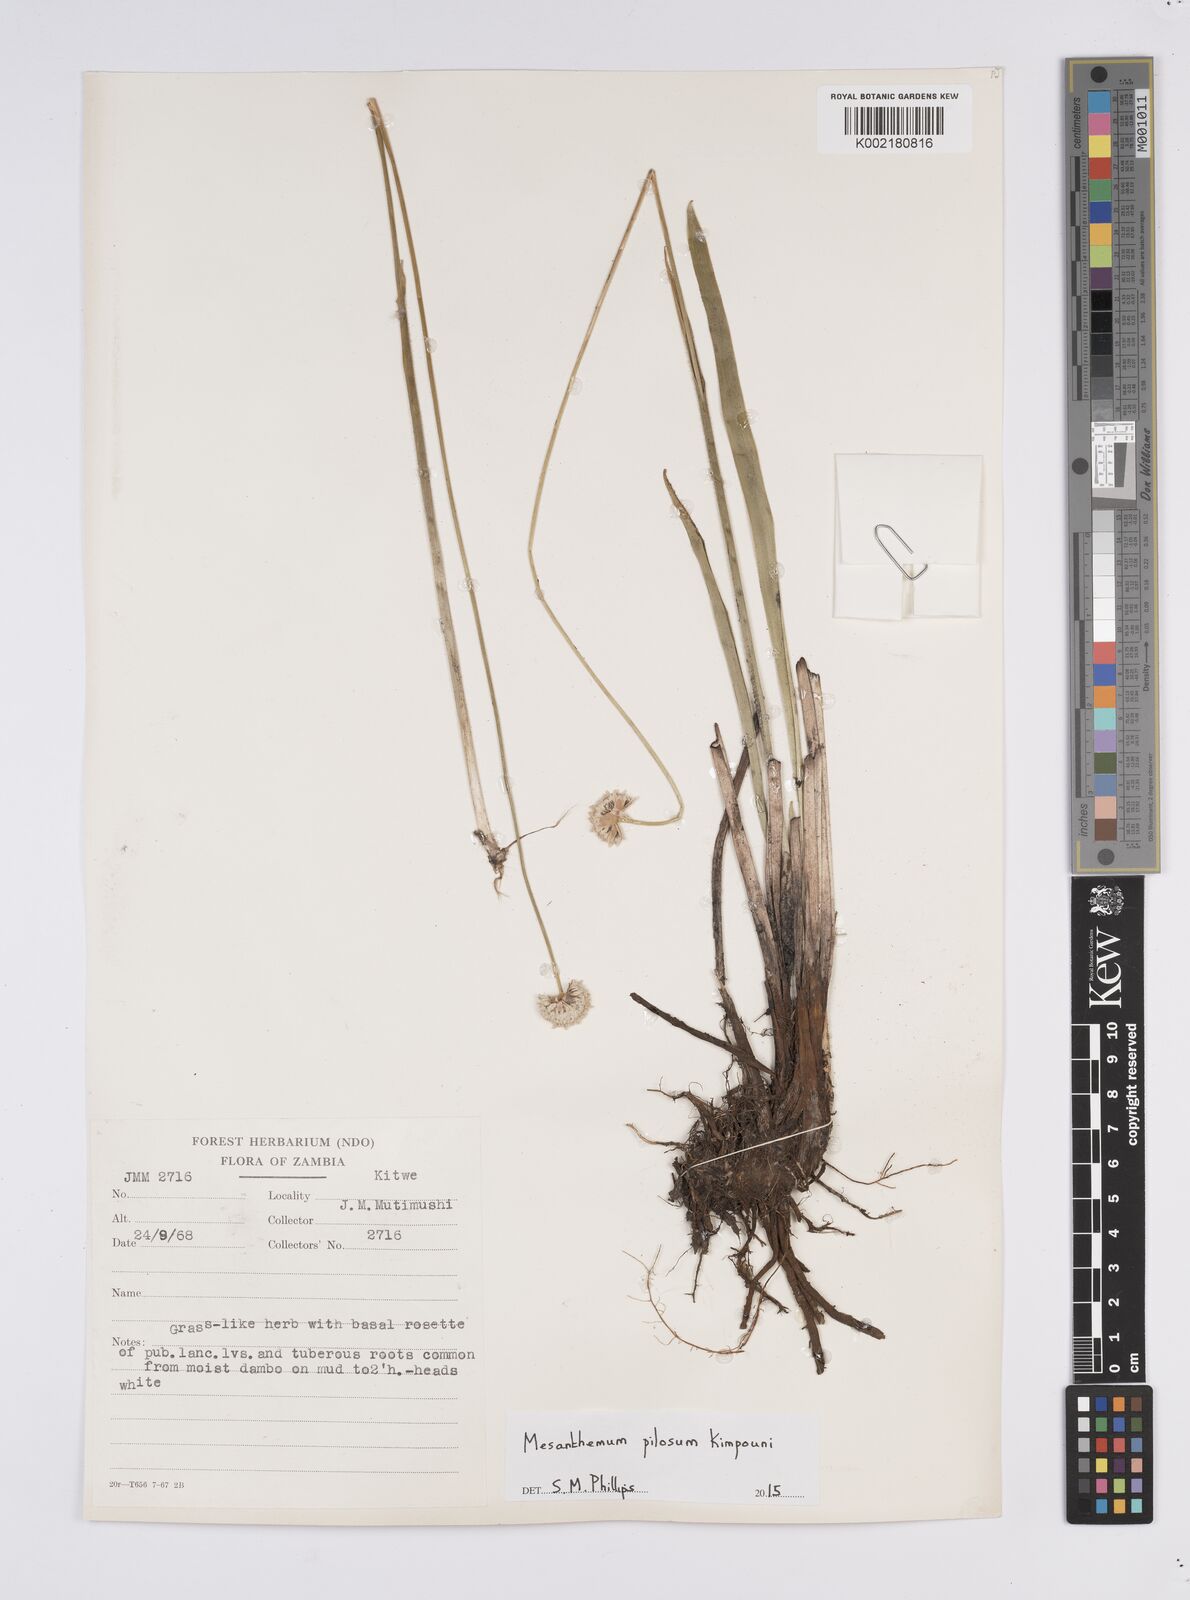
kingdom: Plantae
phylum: Tracheophyta
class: Liliopsida
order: Poales
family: Eriocaulaceae
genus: Mesanthemum
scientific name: Mesanthemum pilosum
